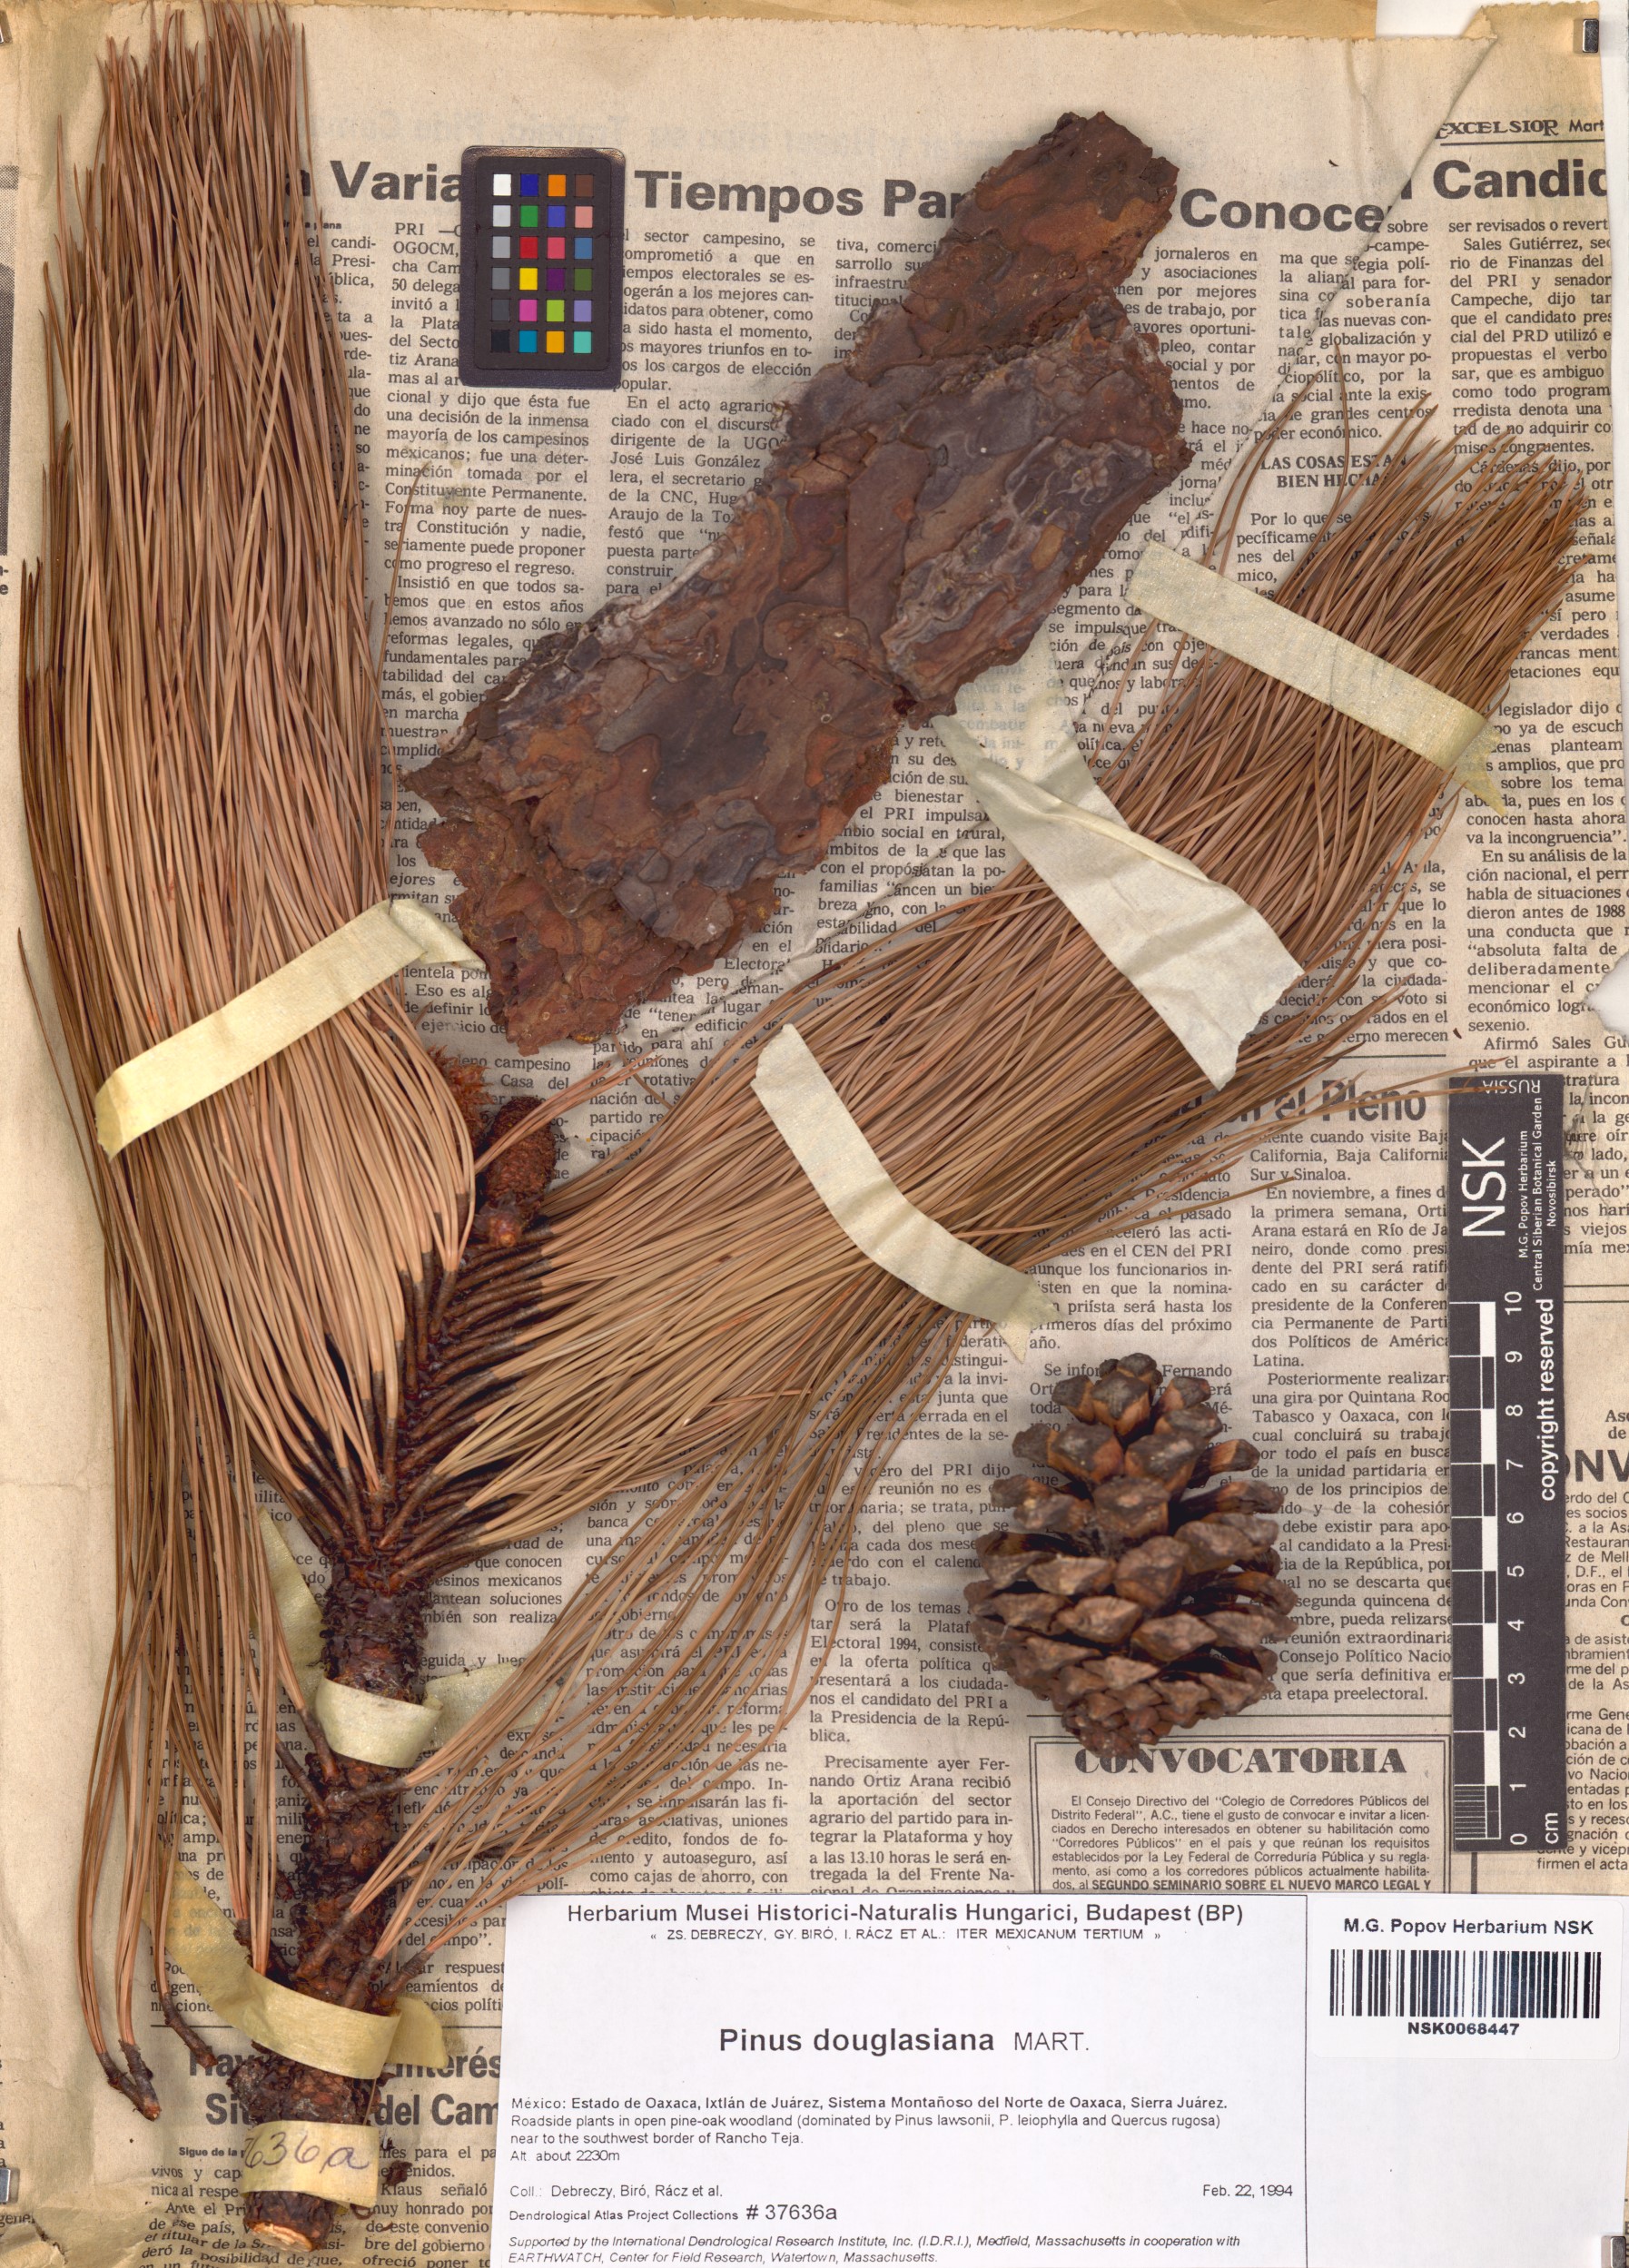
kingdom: Plantae
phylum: Tracheophyta
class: Pinopsida
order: Pinales
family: Pinaceae
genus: Pinus
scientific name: Pinus douglasiana
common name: Douglas pine
